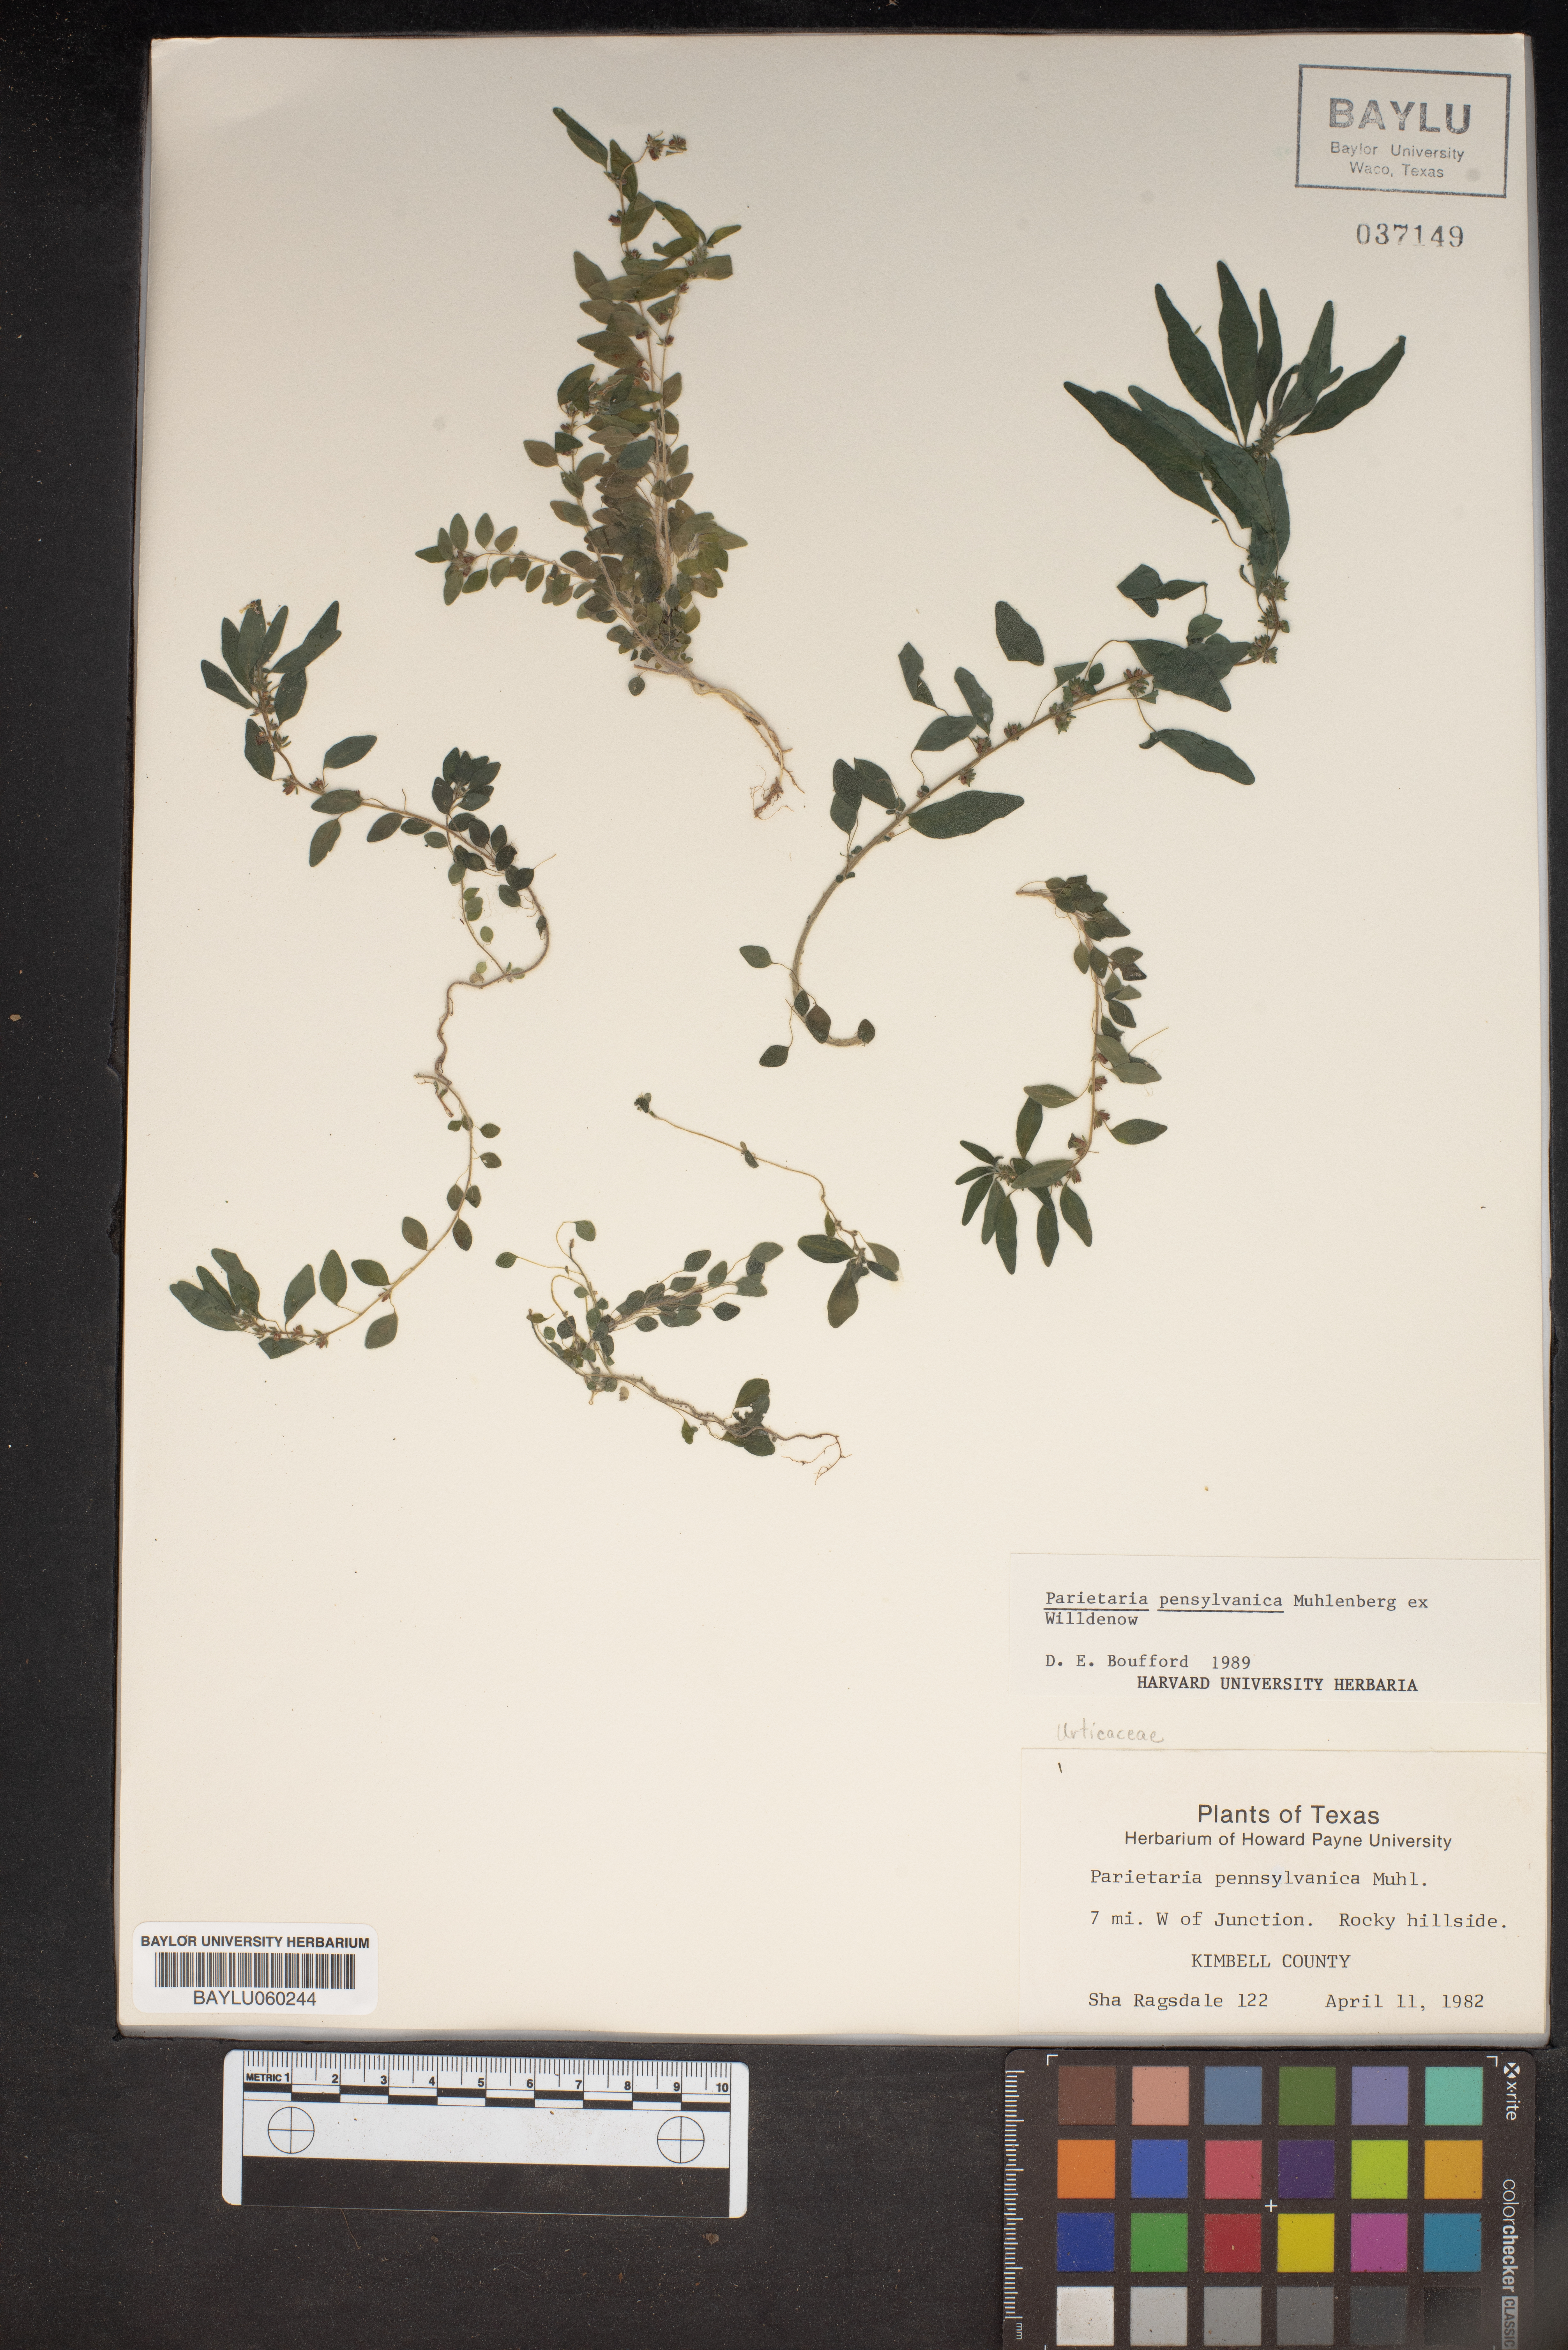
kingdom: Plantae
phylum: Tracheophyta
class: Magnoliopsida
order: Rosales
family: Urticaceae
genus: Parietaria
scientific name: Parietaria pensylvanica
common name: Pennsylvania pellitory
